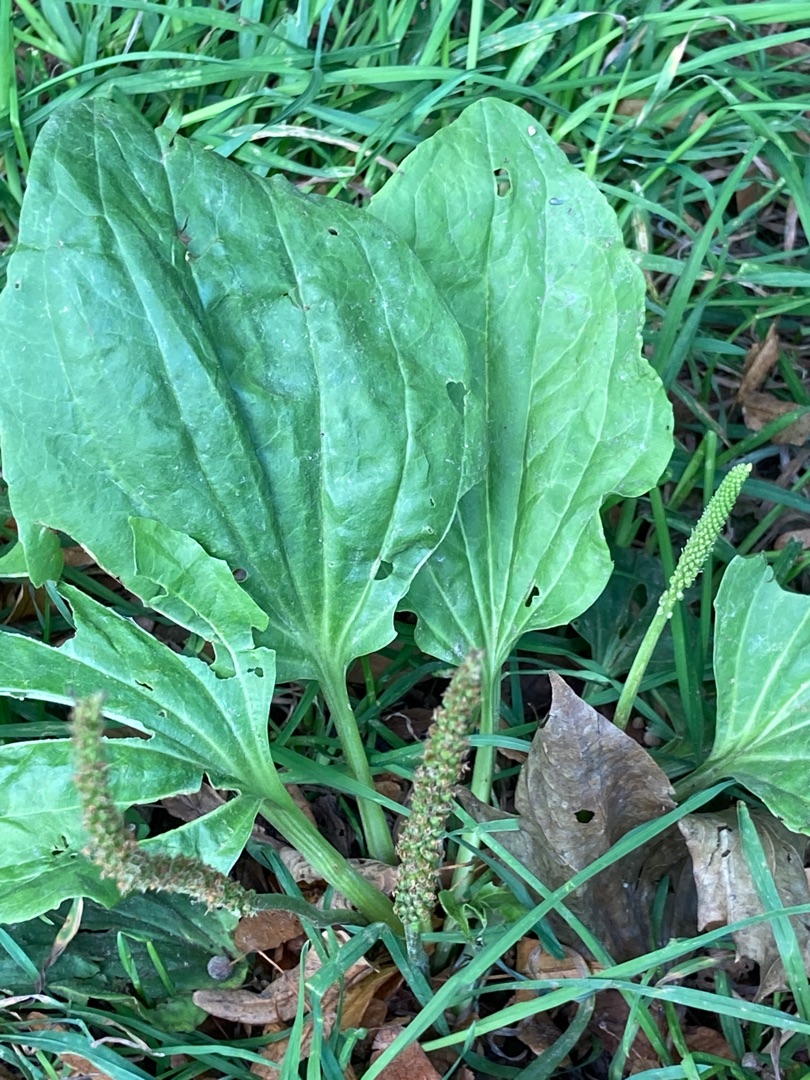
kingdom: Plantae
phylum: Tracheophyta
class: Magnoliopsida
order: Lamiales
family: Plantaginaceae
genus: Plantago
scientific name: Plantago major
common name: Glat vejbred
